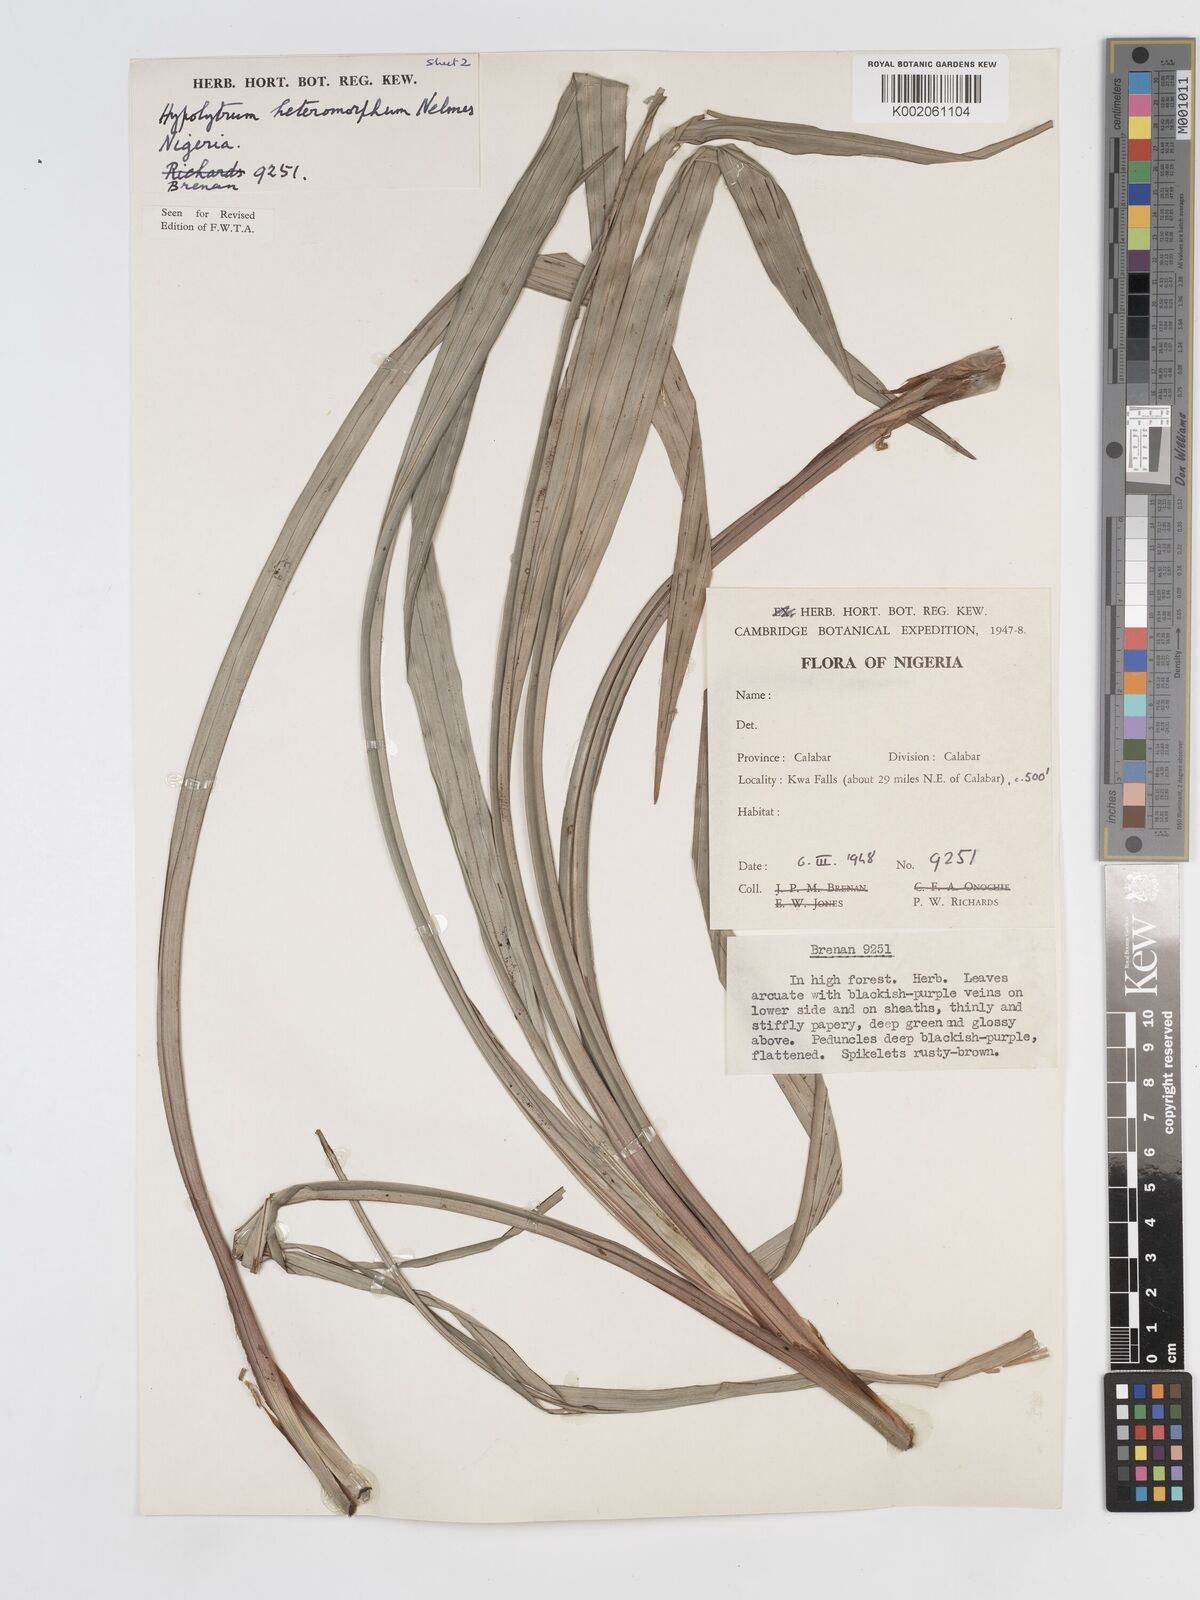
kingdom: Plantae
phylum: Tracheophyta
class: Liliopsida
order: Poales
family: Cyperaceae
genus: Hypolytrum
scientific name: Hypolytrum heteromorphum
